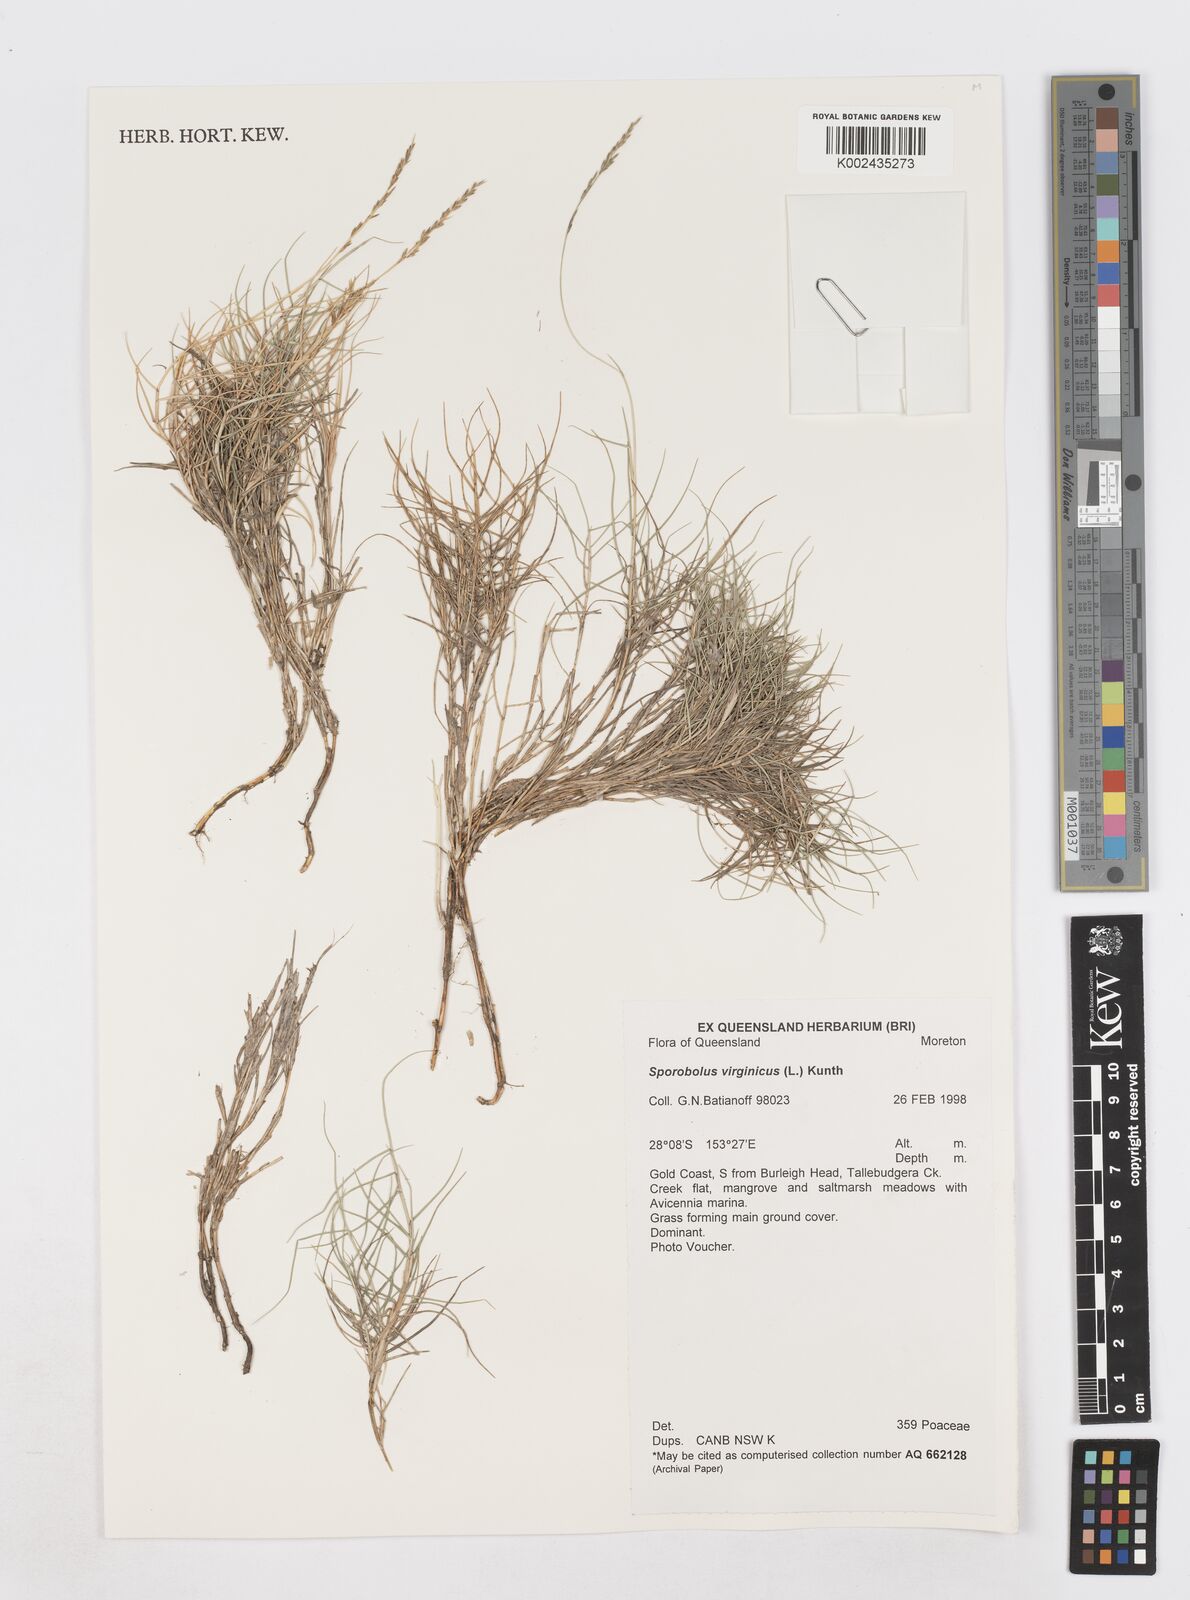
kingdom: Plantae
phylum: Tracheophyta
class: Liliopsida
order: Poales
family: Poaceae
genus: Sporobolus
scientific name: Sporobolus virginicus
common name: Beach dropseed
